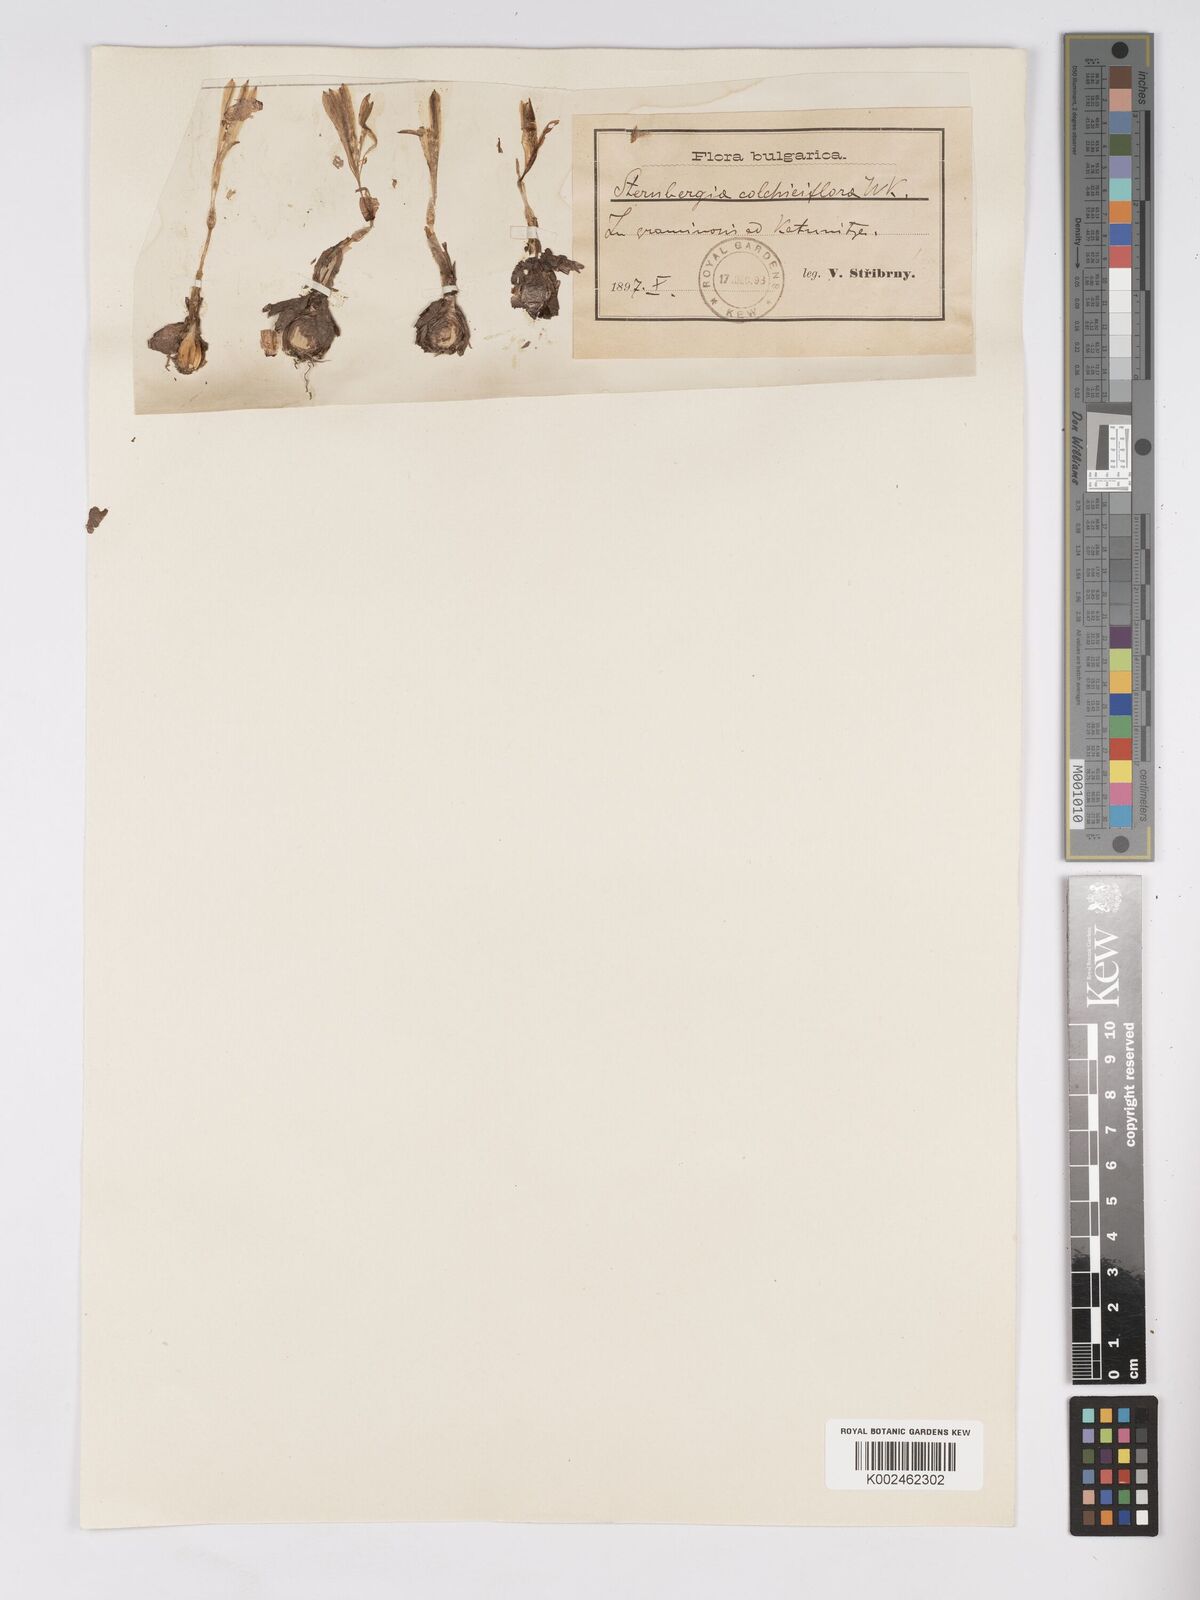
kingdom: Plantae
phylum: Tracheophyta
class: Liliopsida
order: Asparagales
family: Amaryllidaceae
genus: Sternbergia
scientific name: Sternbergia colchiciflora
